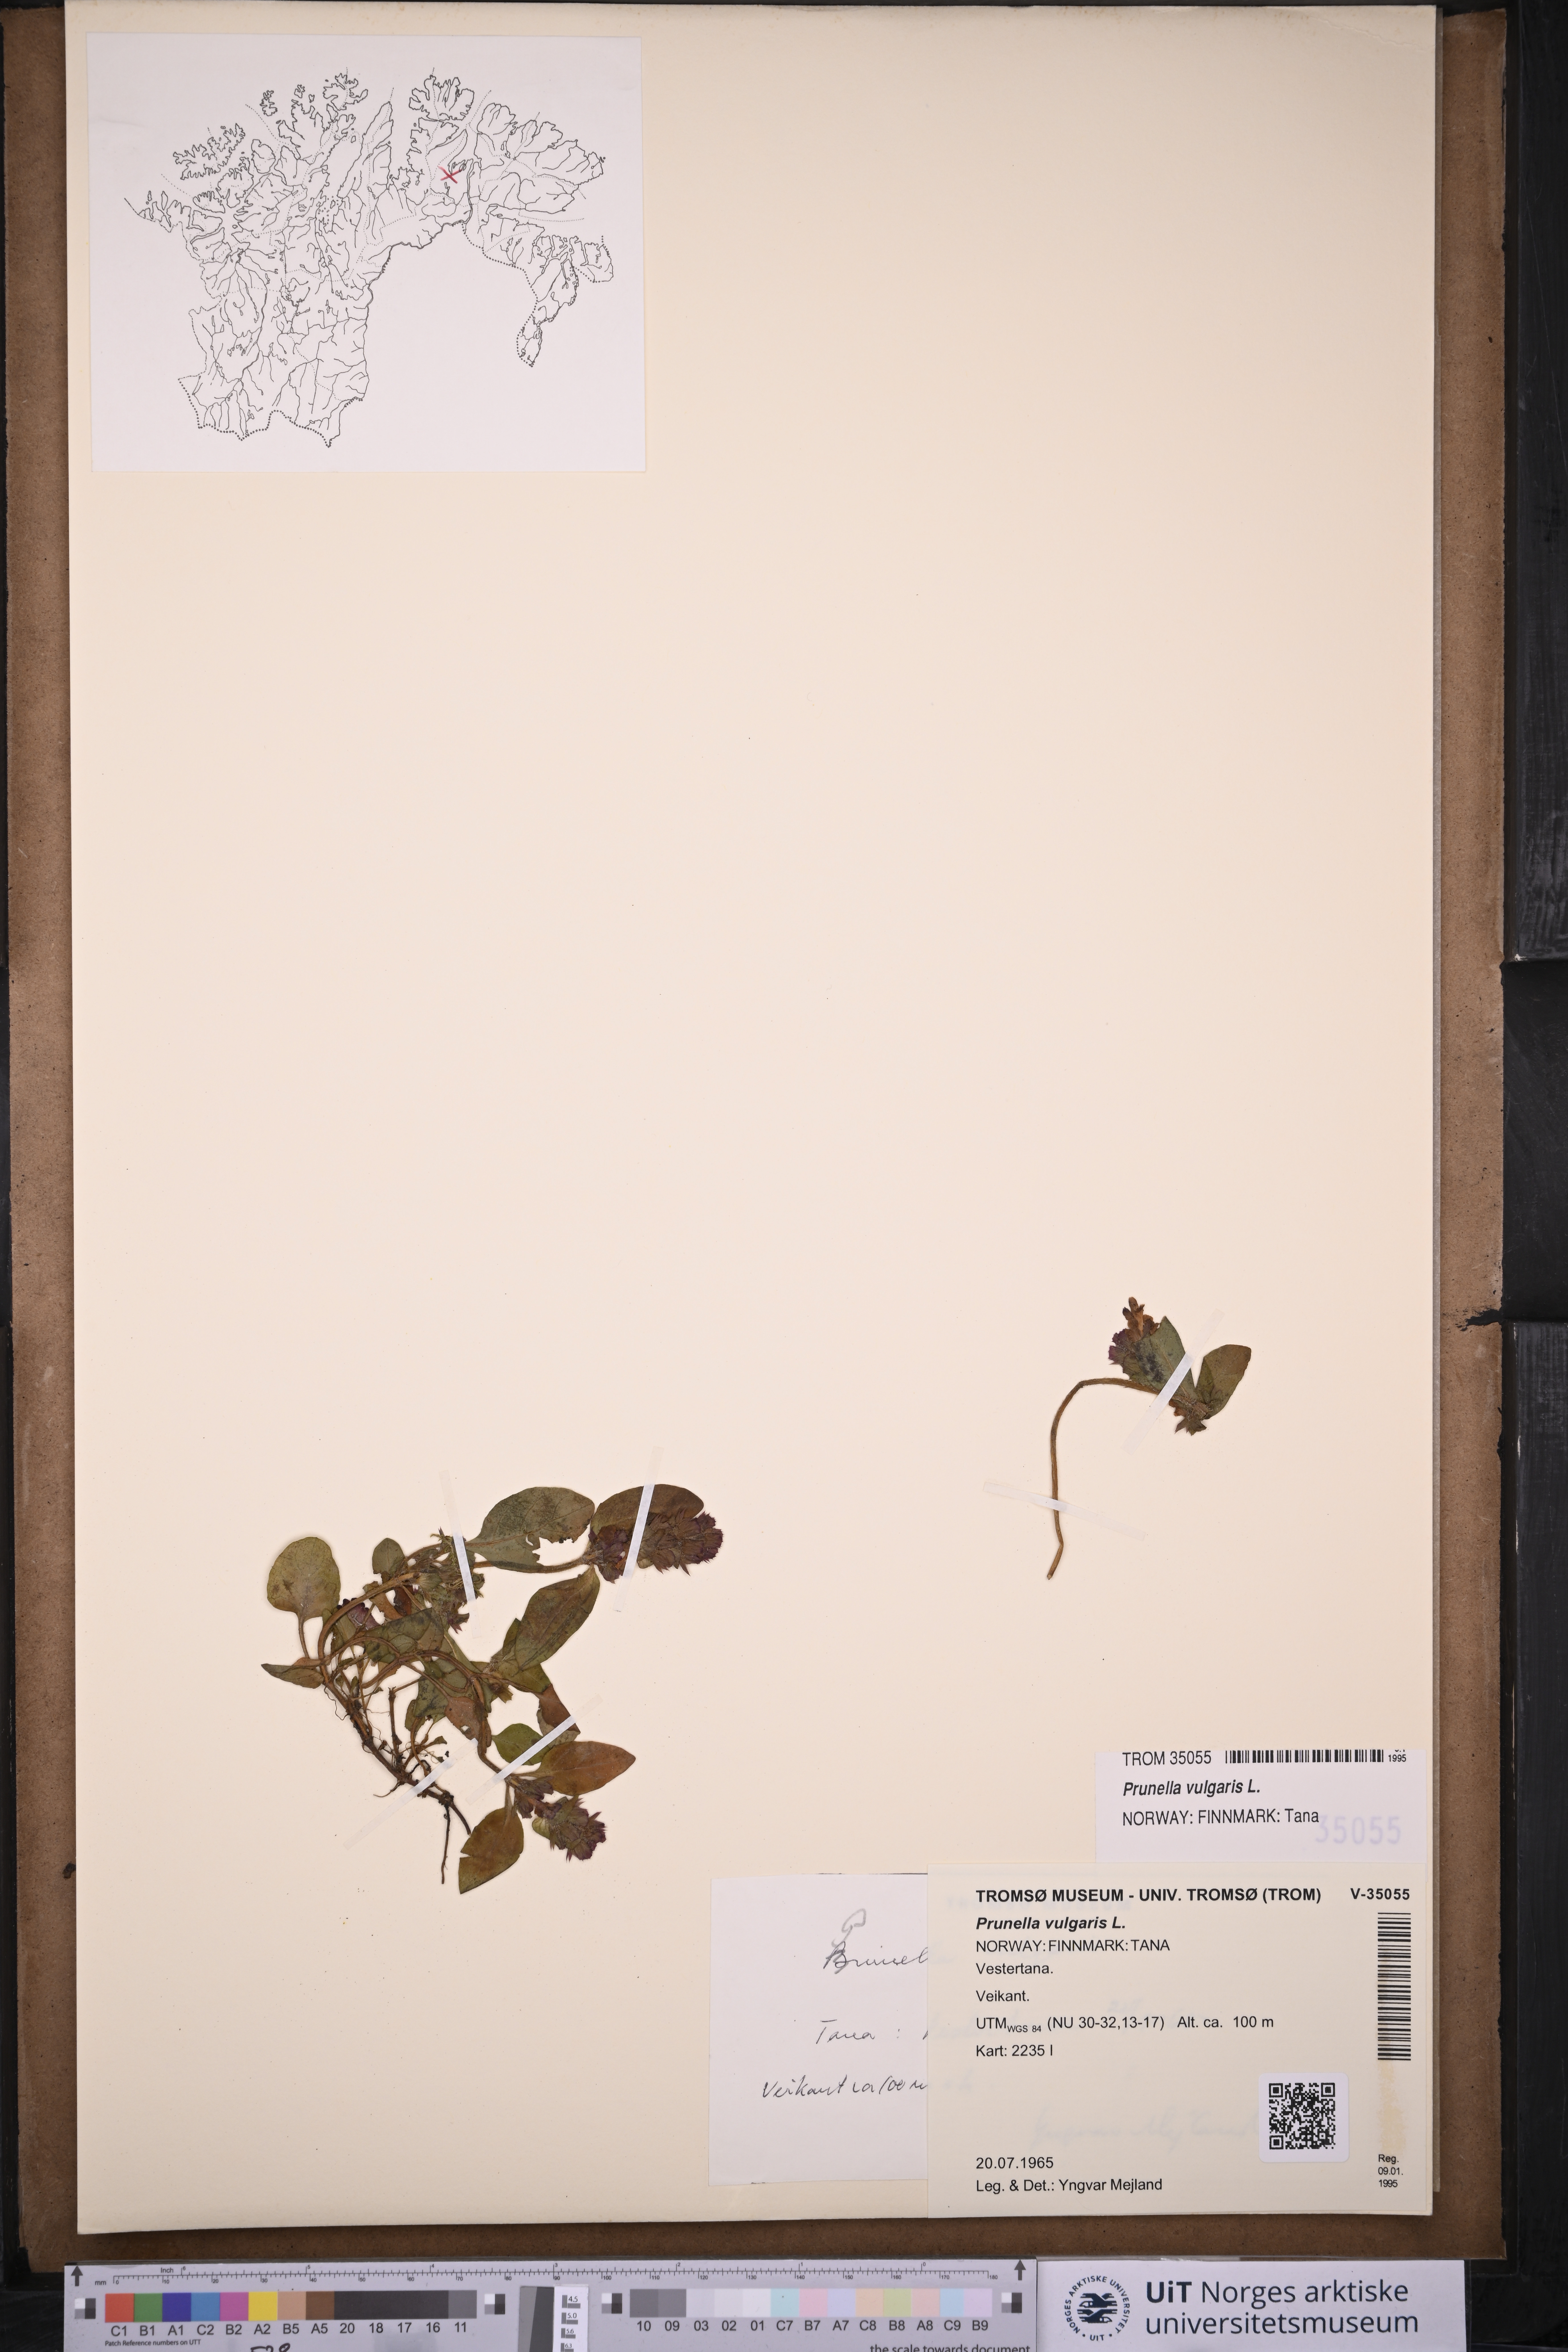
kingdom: Plantae
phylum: Tracheophyta
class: Magnoliopsida
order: Lamiales
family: Lamiaceae
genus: Prunella
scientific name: Prunella vulgaris
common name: Heal-all
